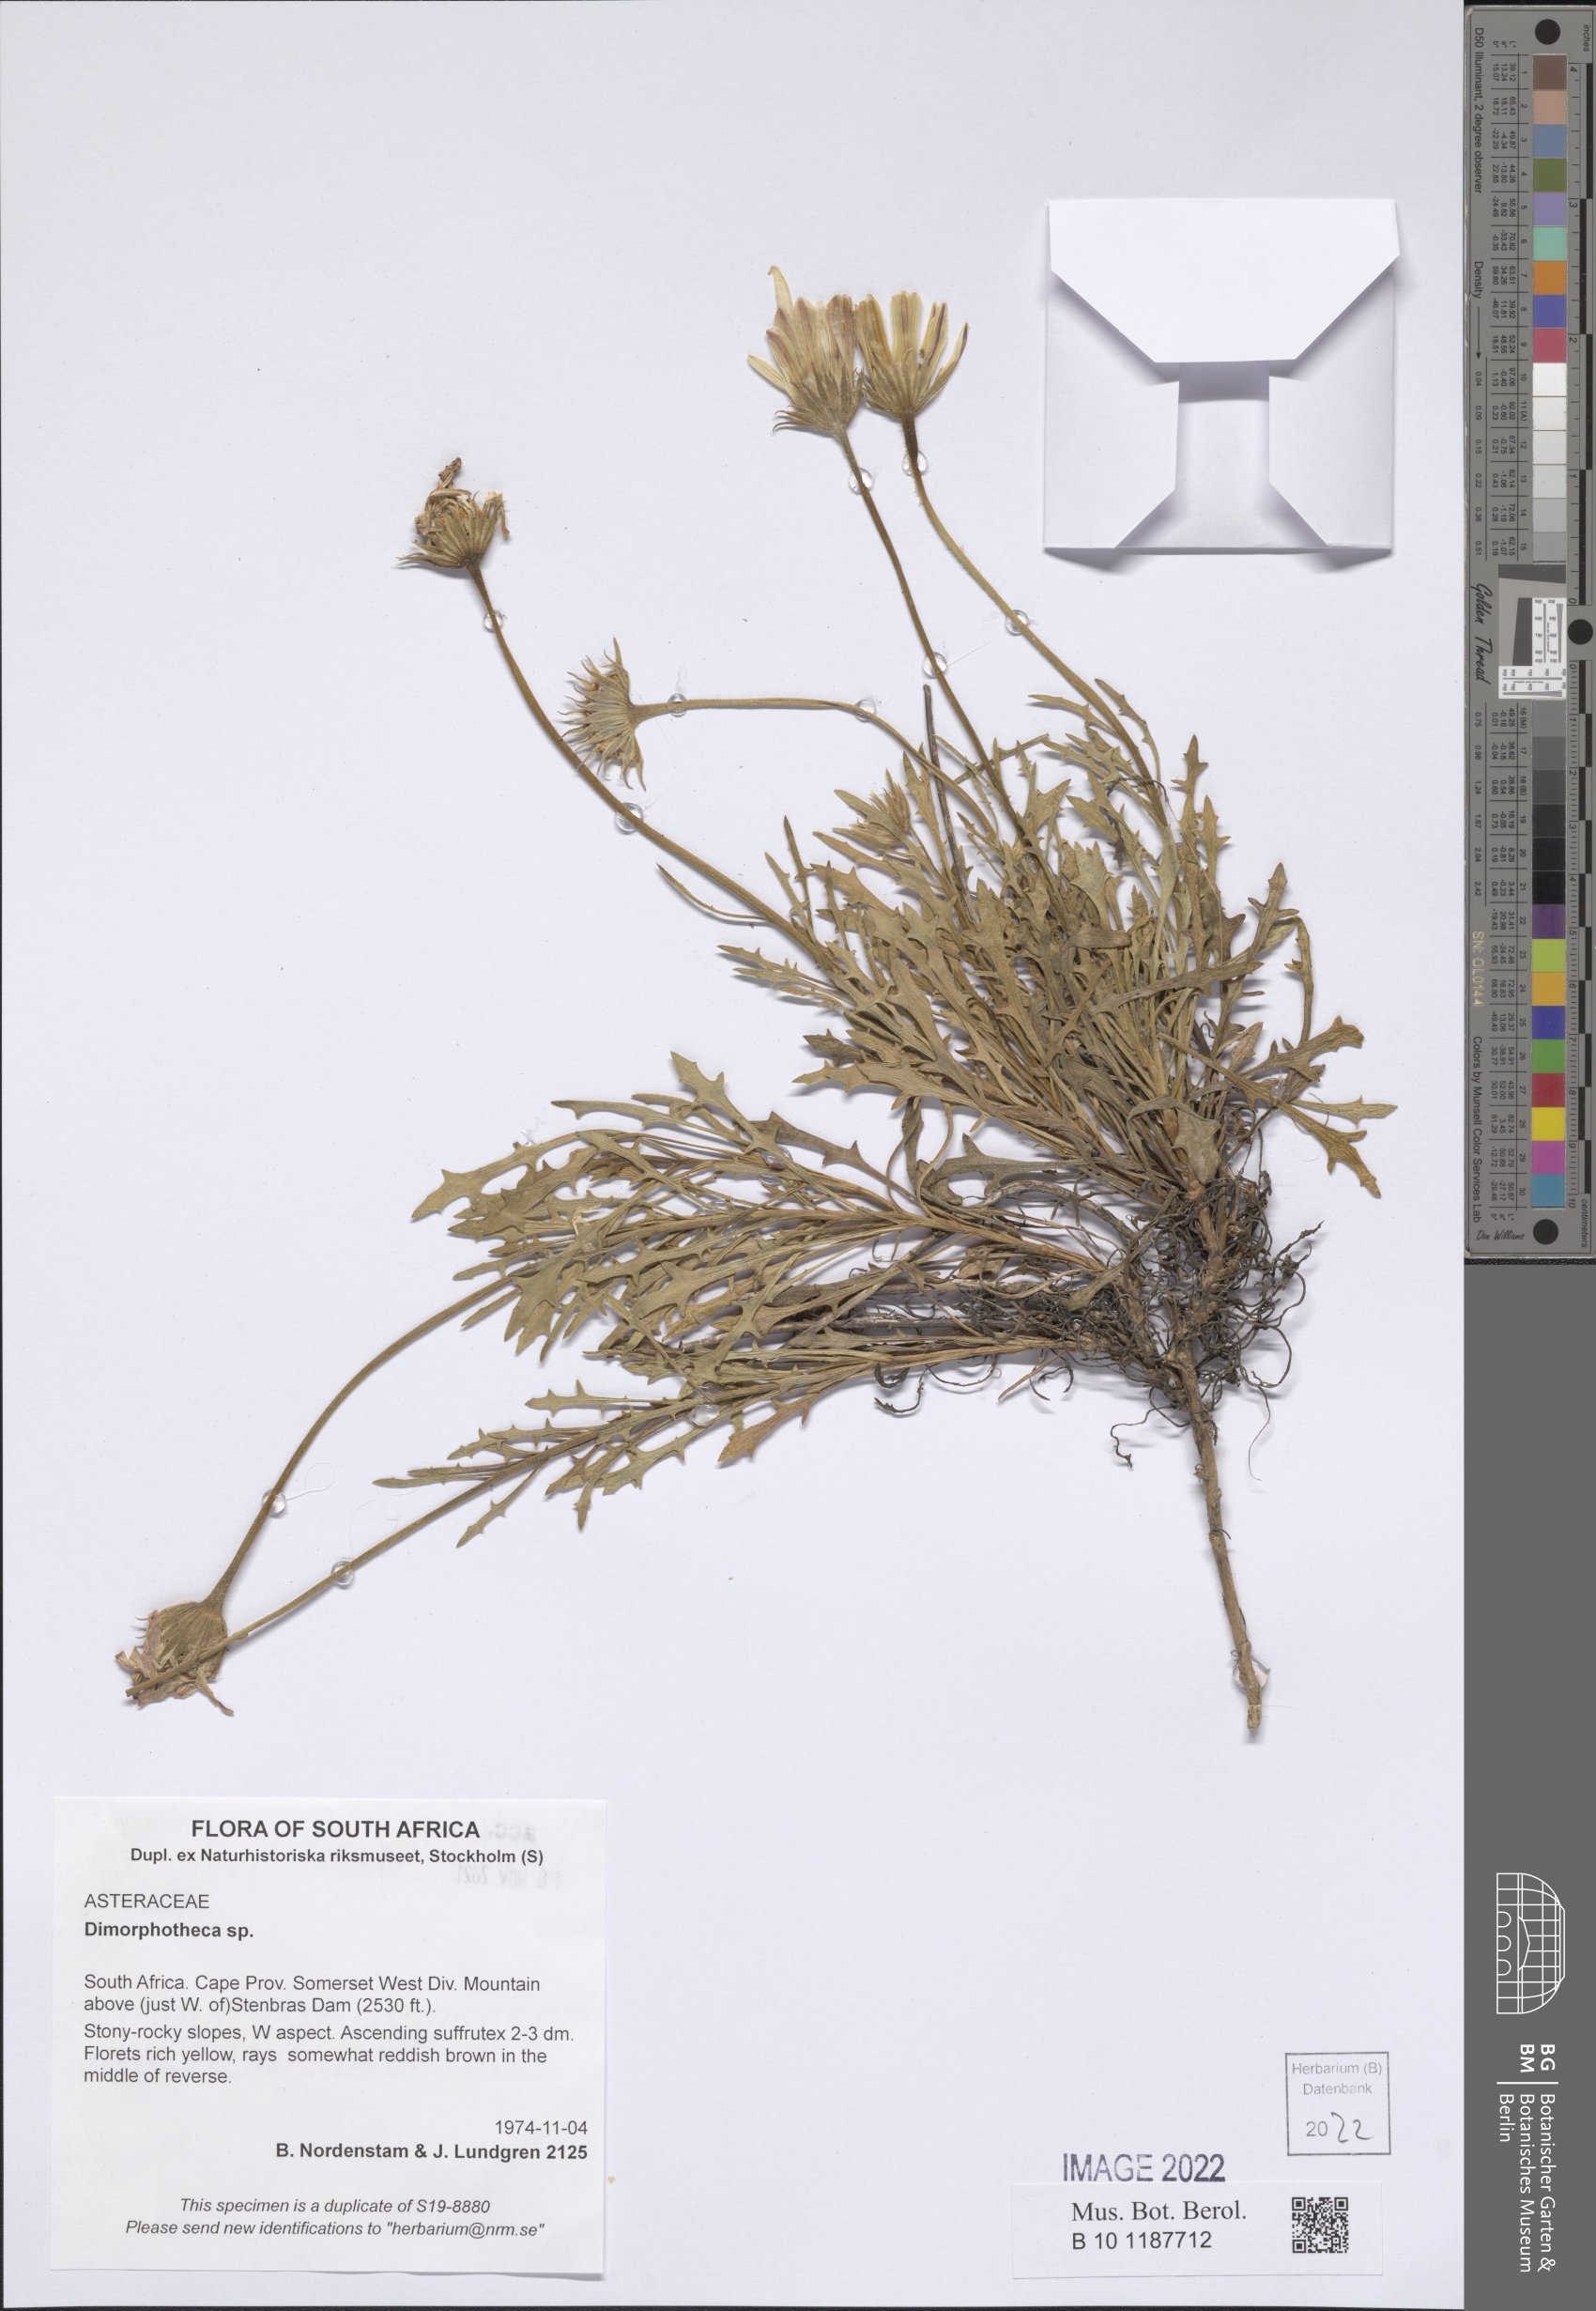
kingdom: Plantae
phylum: Tracheophyta
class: Magnoliopsida
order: Asterales
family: Asteraceae
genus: Dimorphotheca
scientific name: Dimorphotheca
